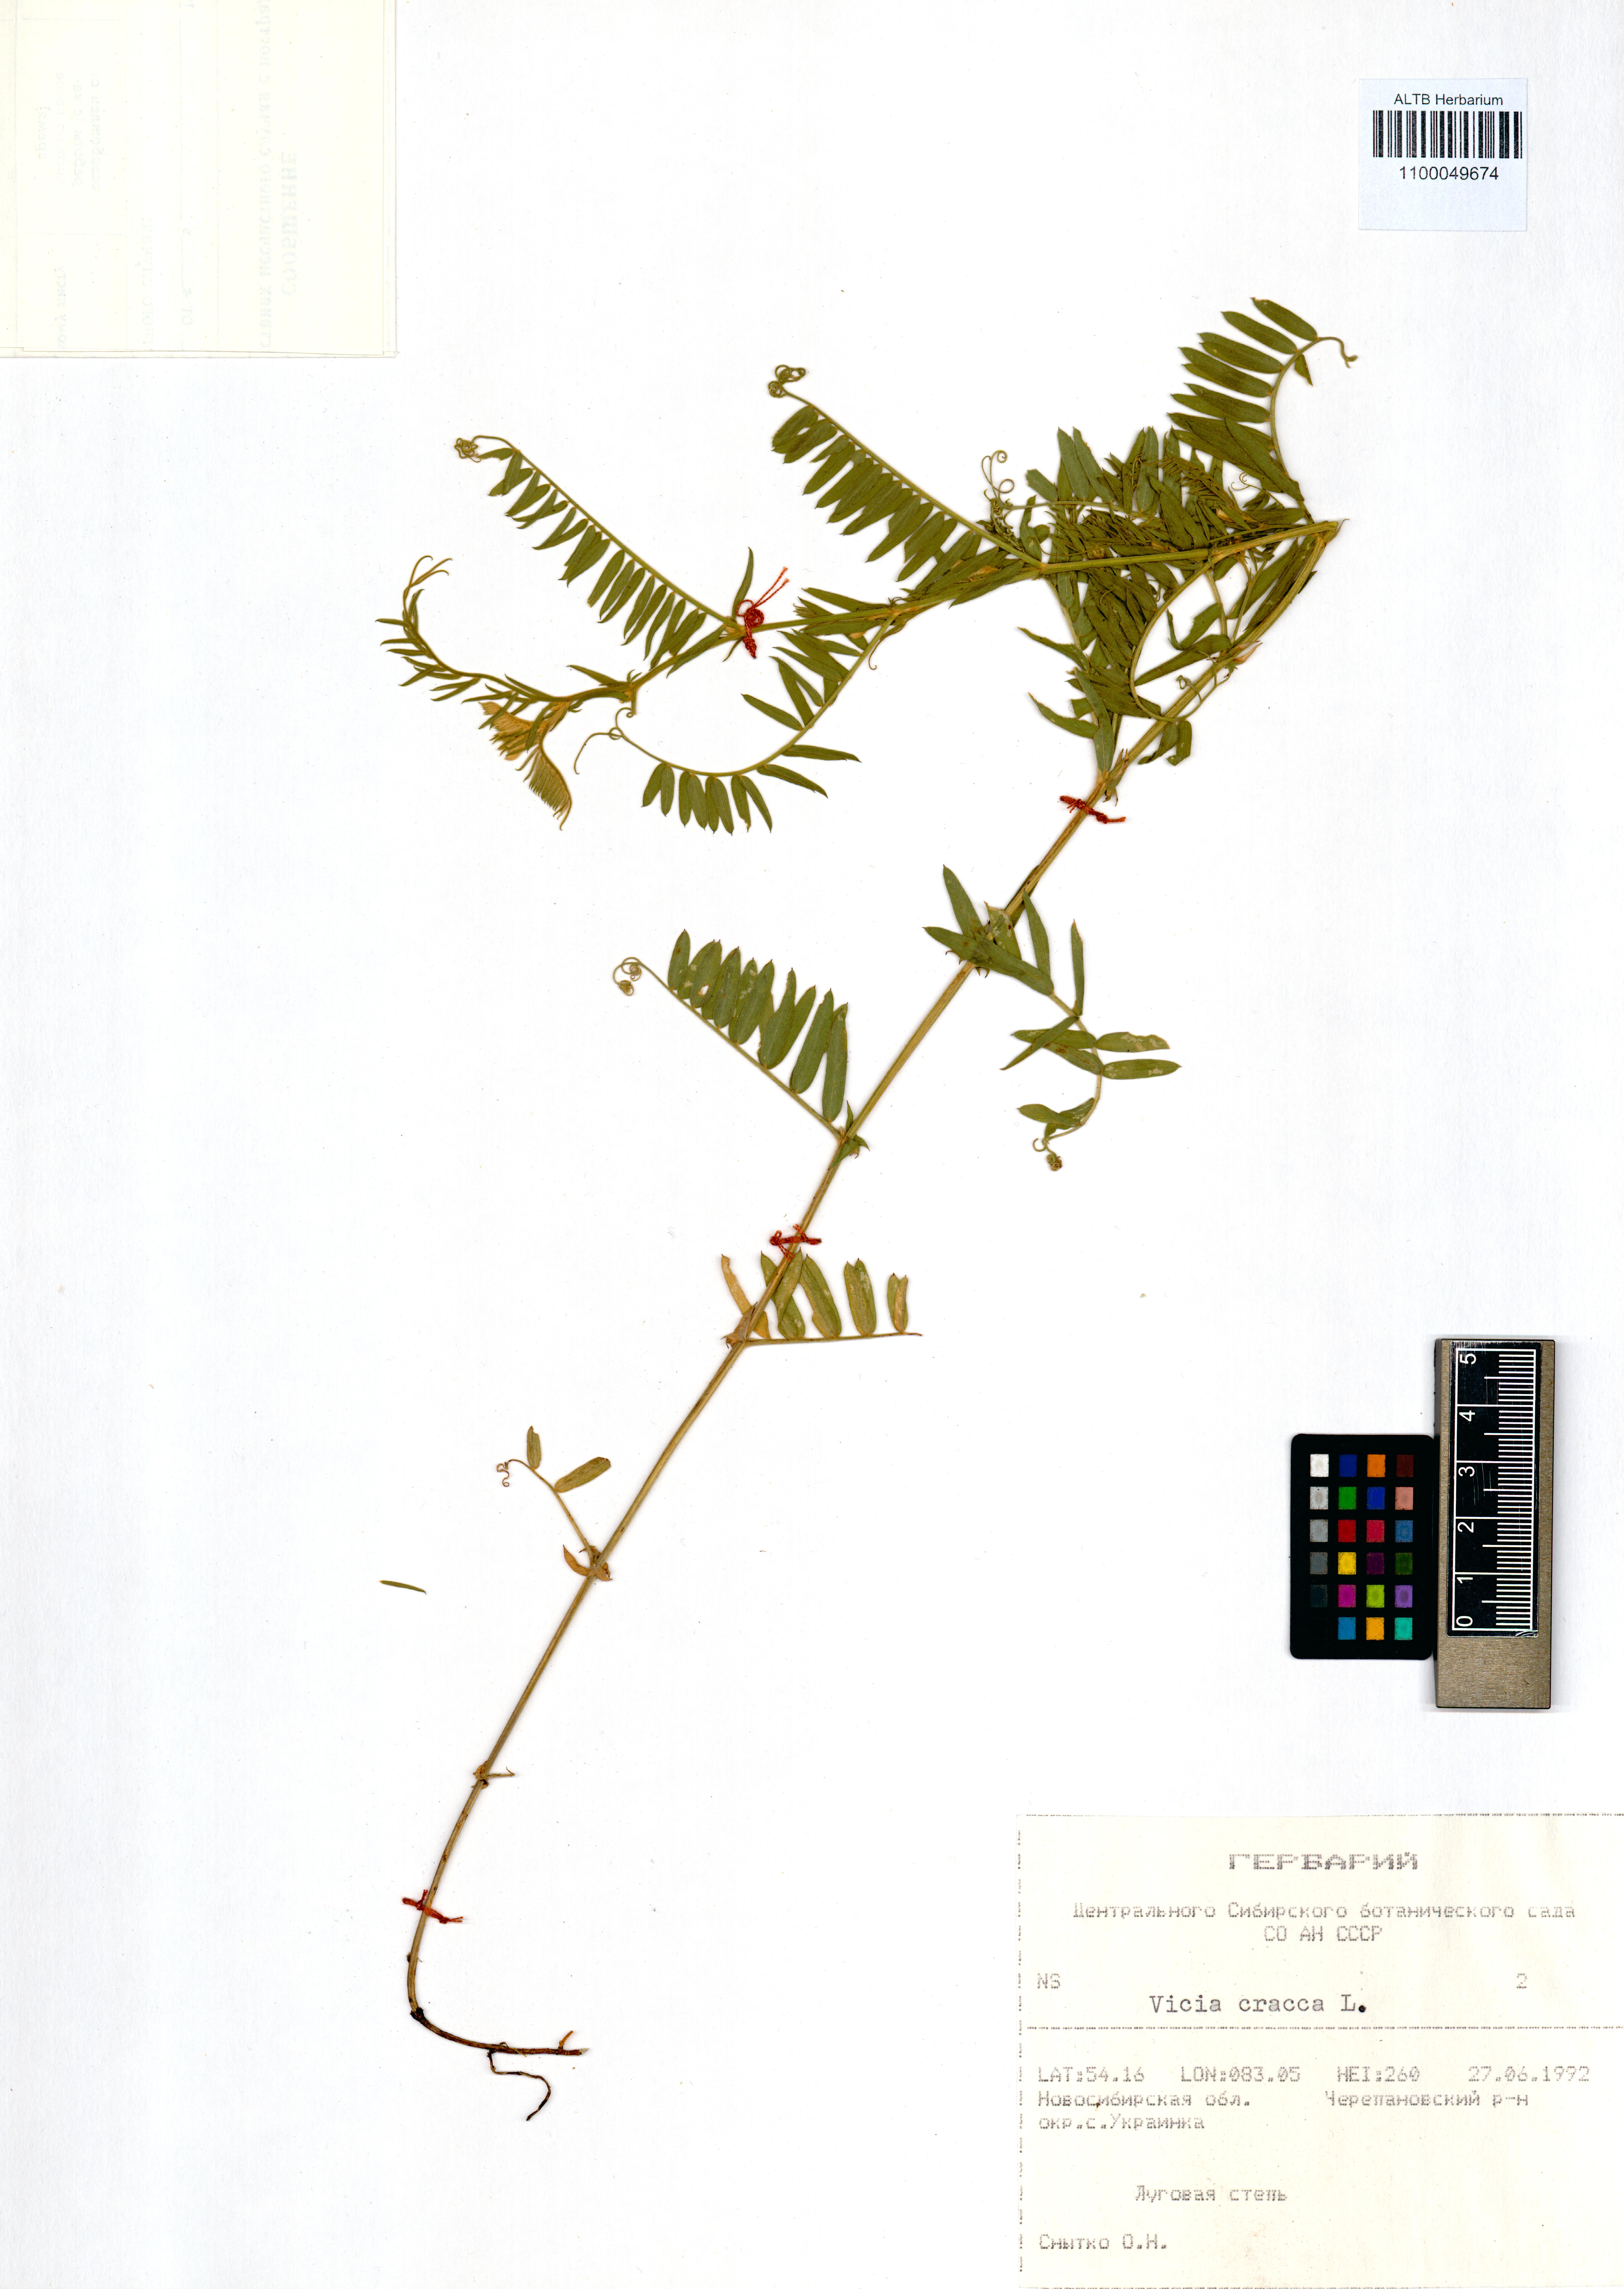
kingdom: Plantae
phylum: Tracheophyta
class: Magnoliopsida
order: Fabales
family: Fabaceae
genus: Vicia
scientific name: Vicia cracca
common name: Bird vetch
